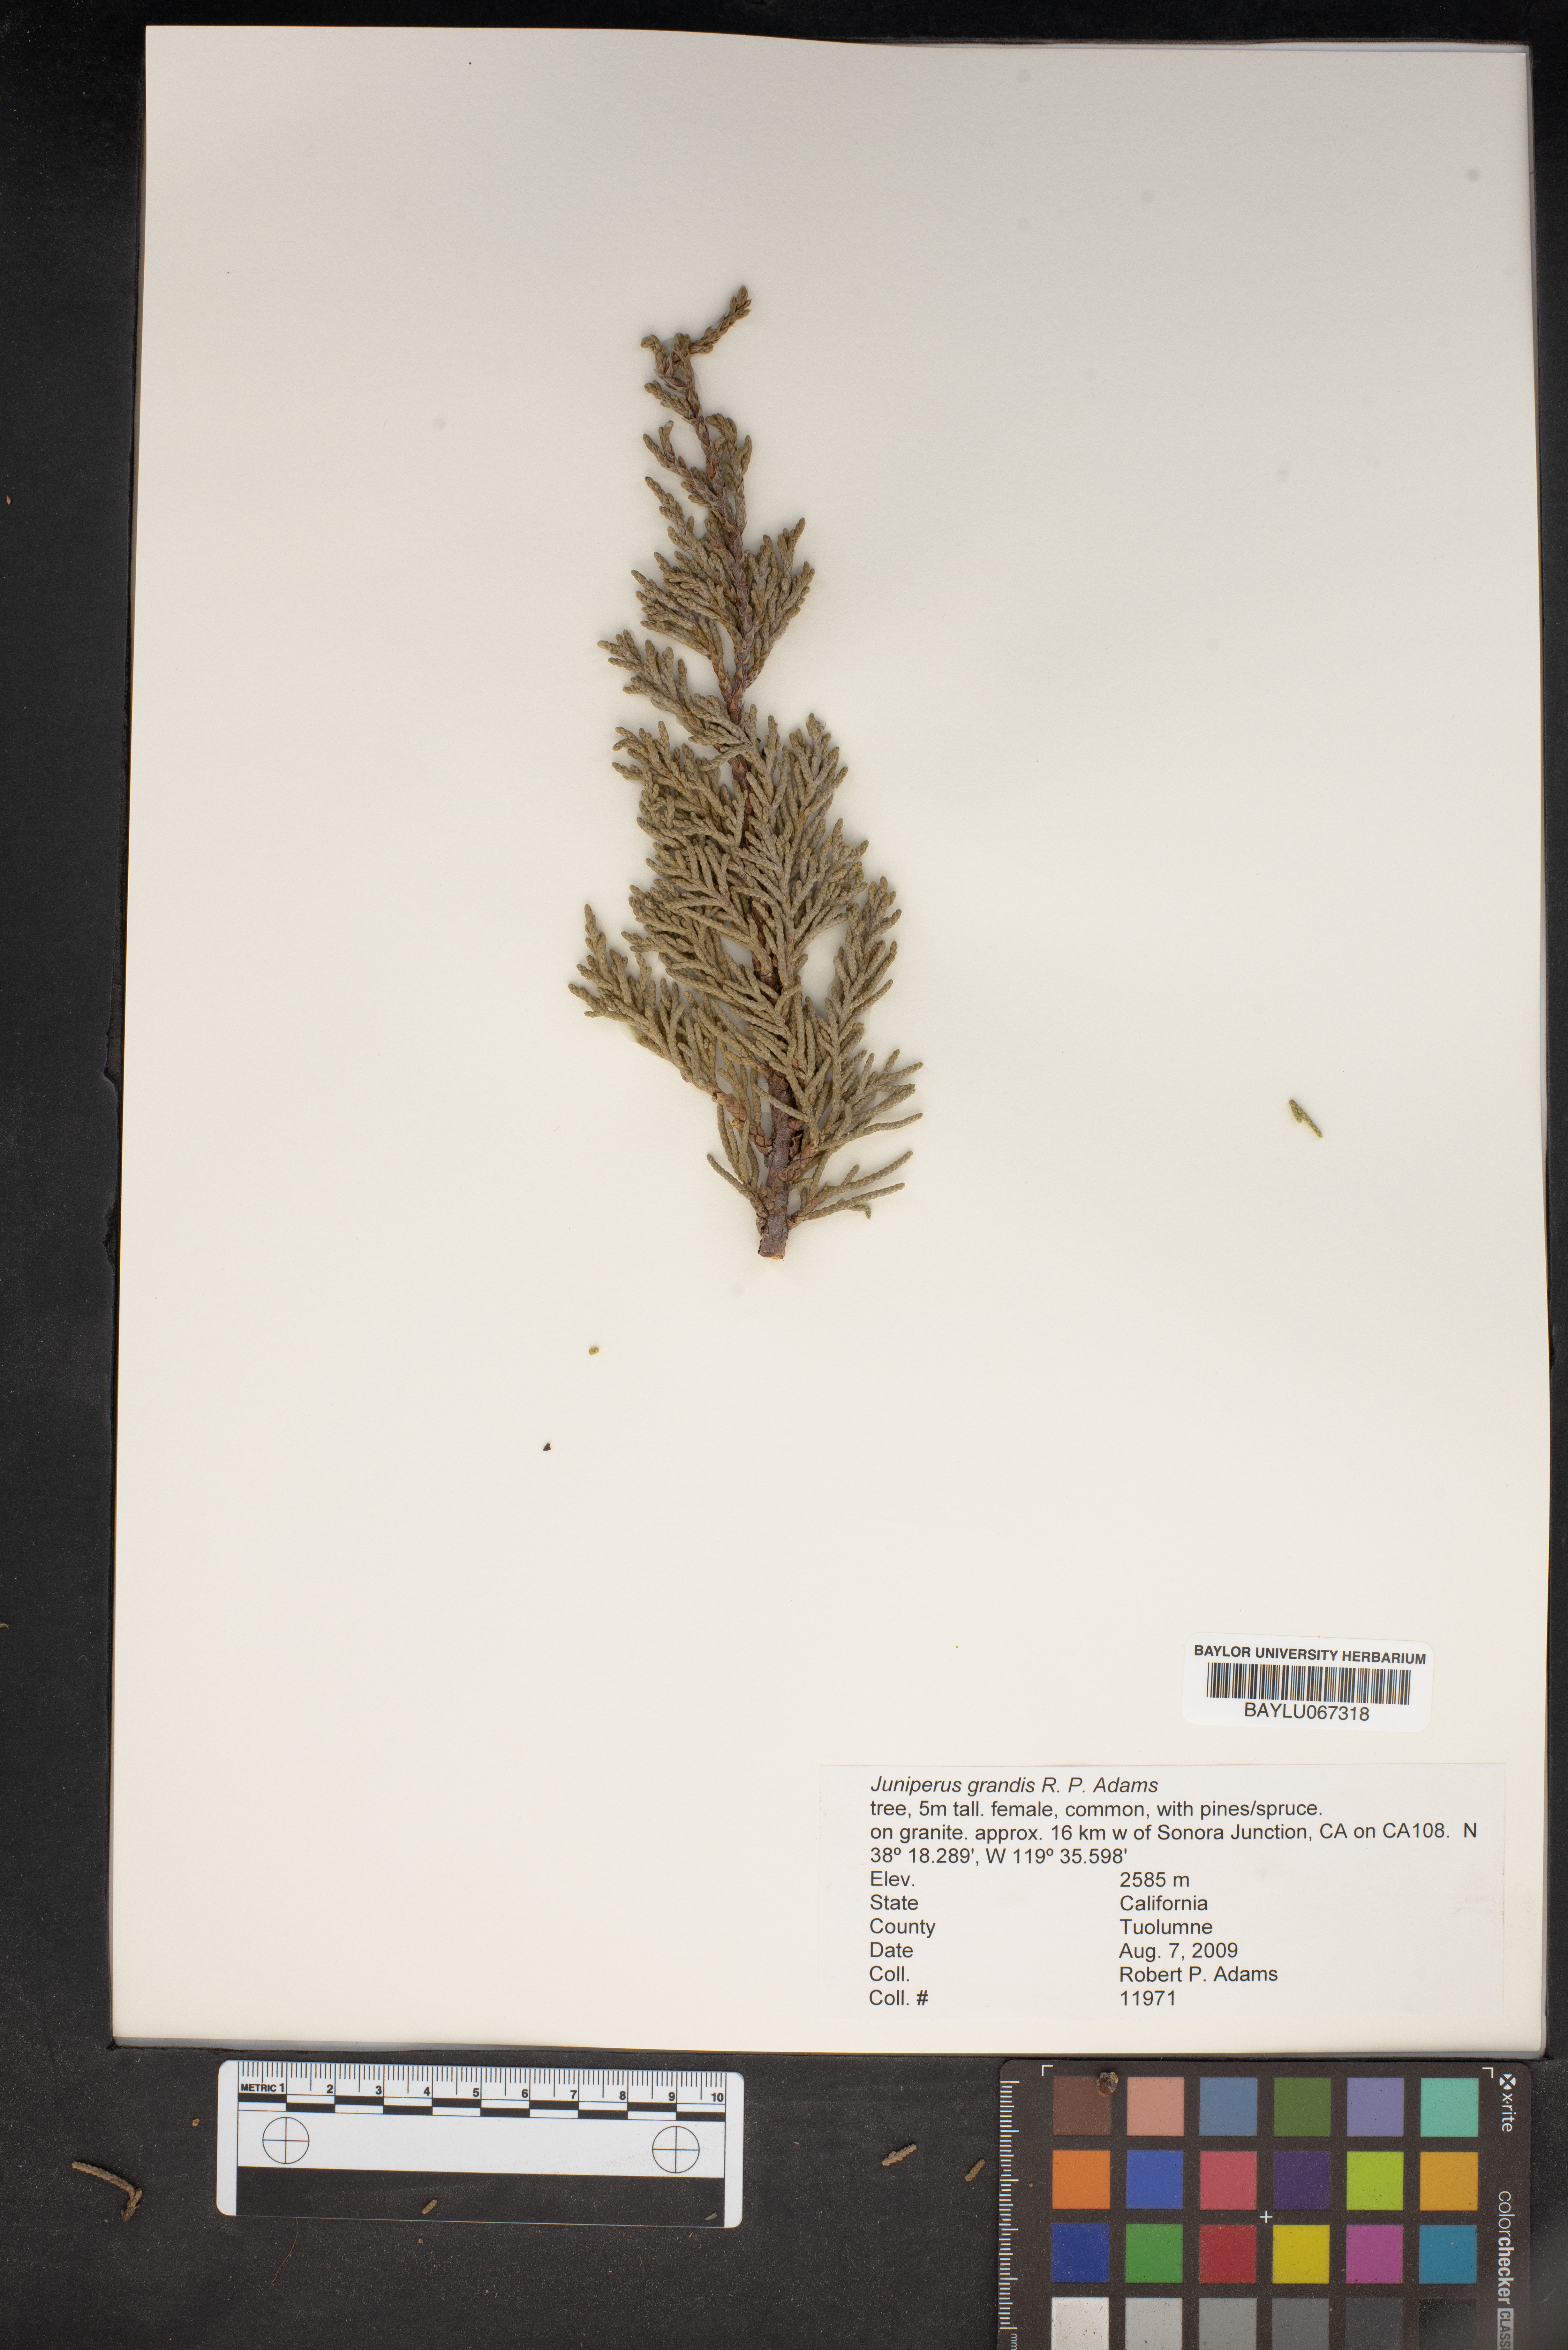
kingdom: Plantae
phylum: Tracheophyta
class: Pinopsida
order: Pinales
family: Cupressaceae
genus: Juniperus
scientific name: Juniperus occidentalis
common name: Western juniper
